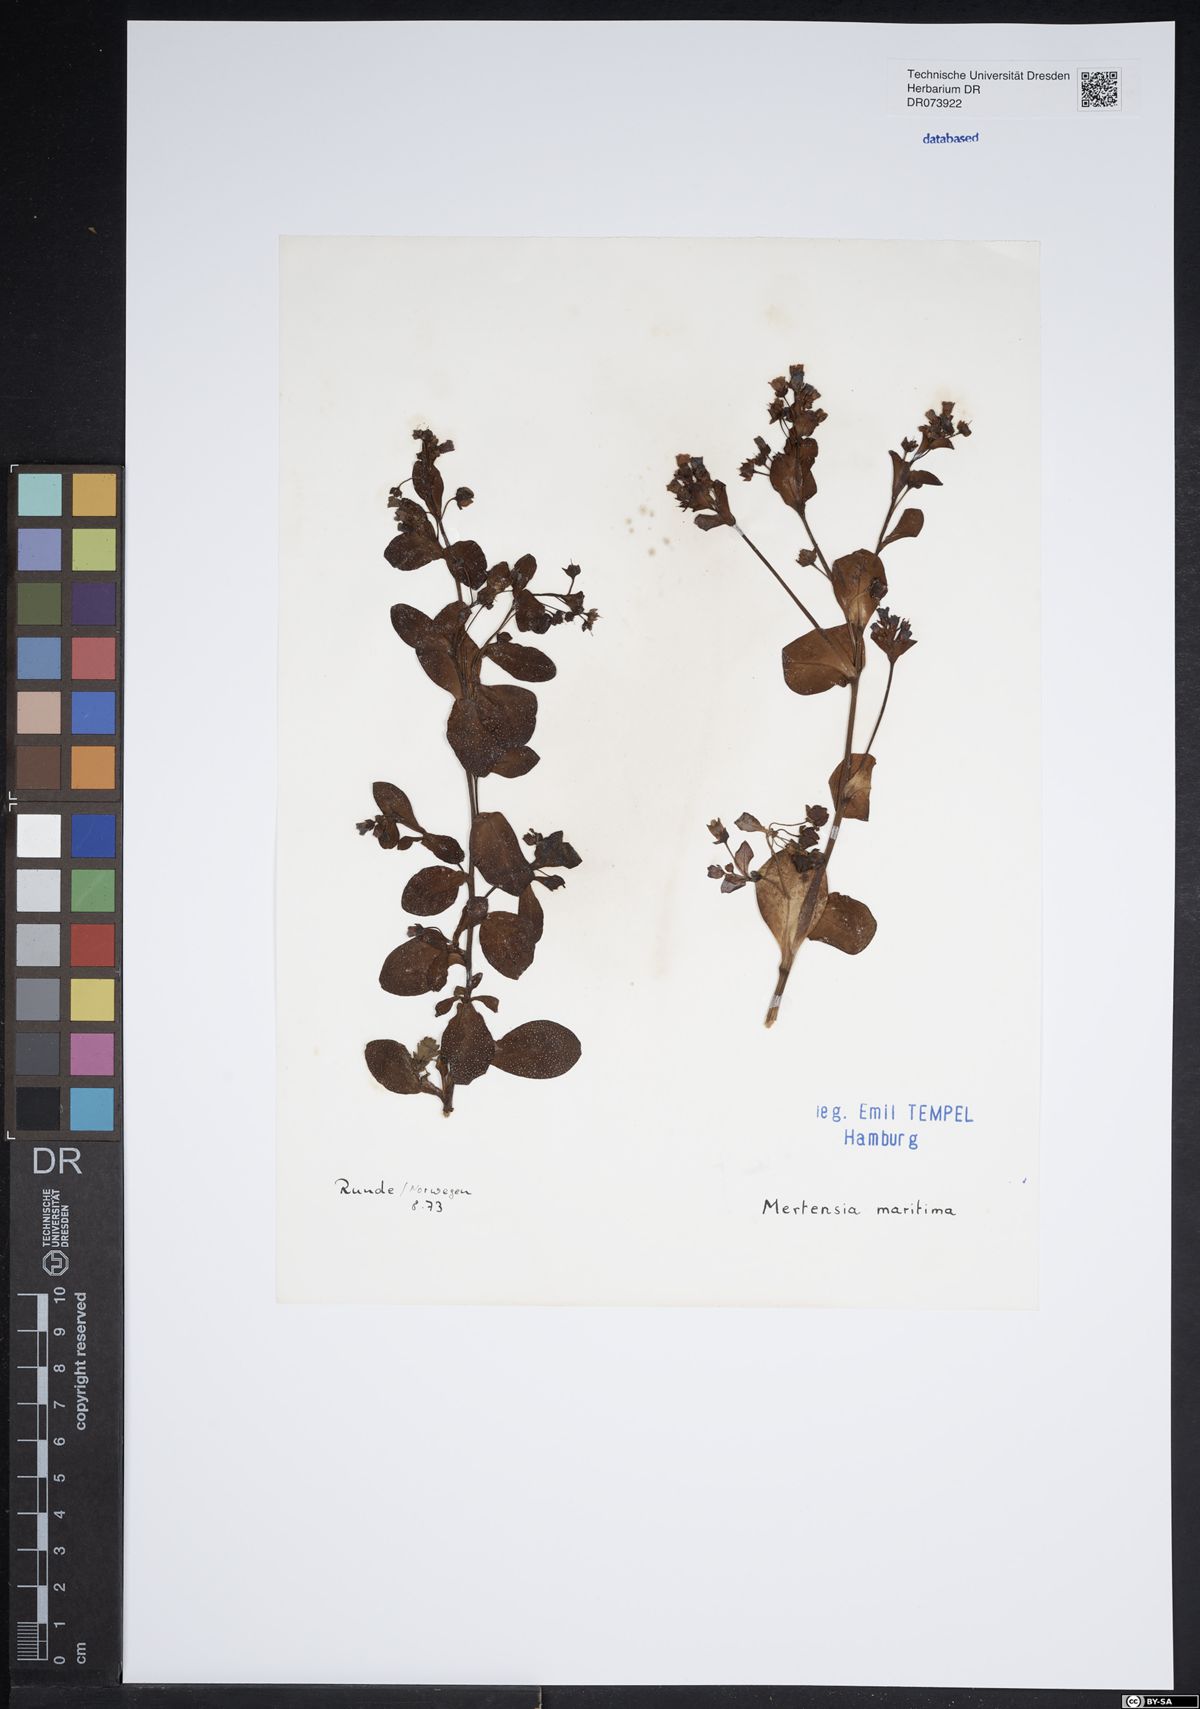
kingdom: Plantae
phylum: Tracheophyta
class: Magnoliopsida
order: Boraginales
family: Boraginaceae
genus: Mertensia
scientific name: Mertensia maritima
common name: Oysterplant
